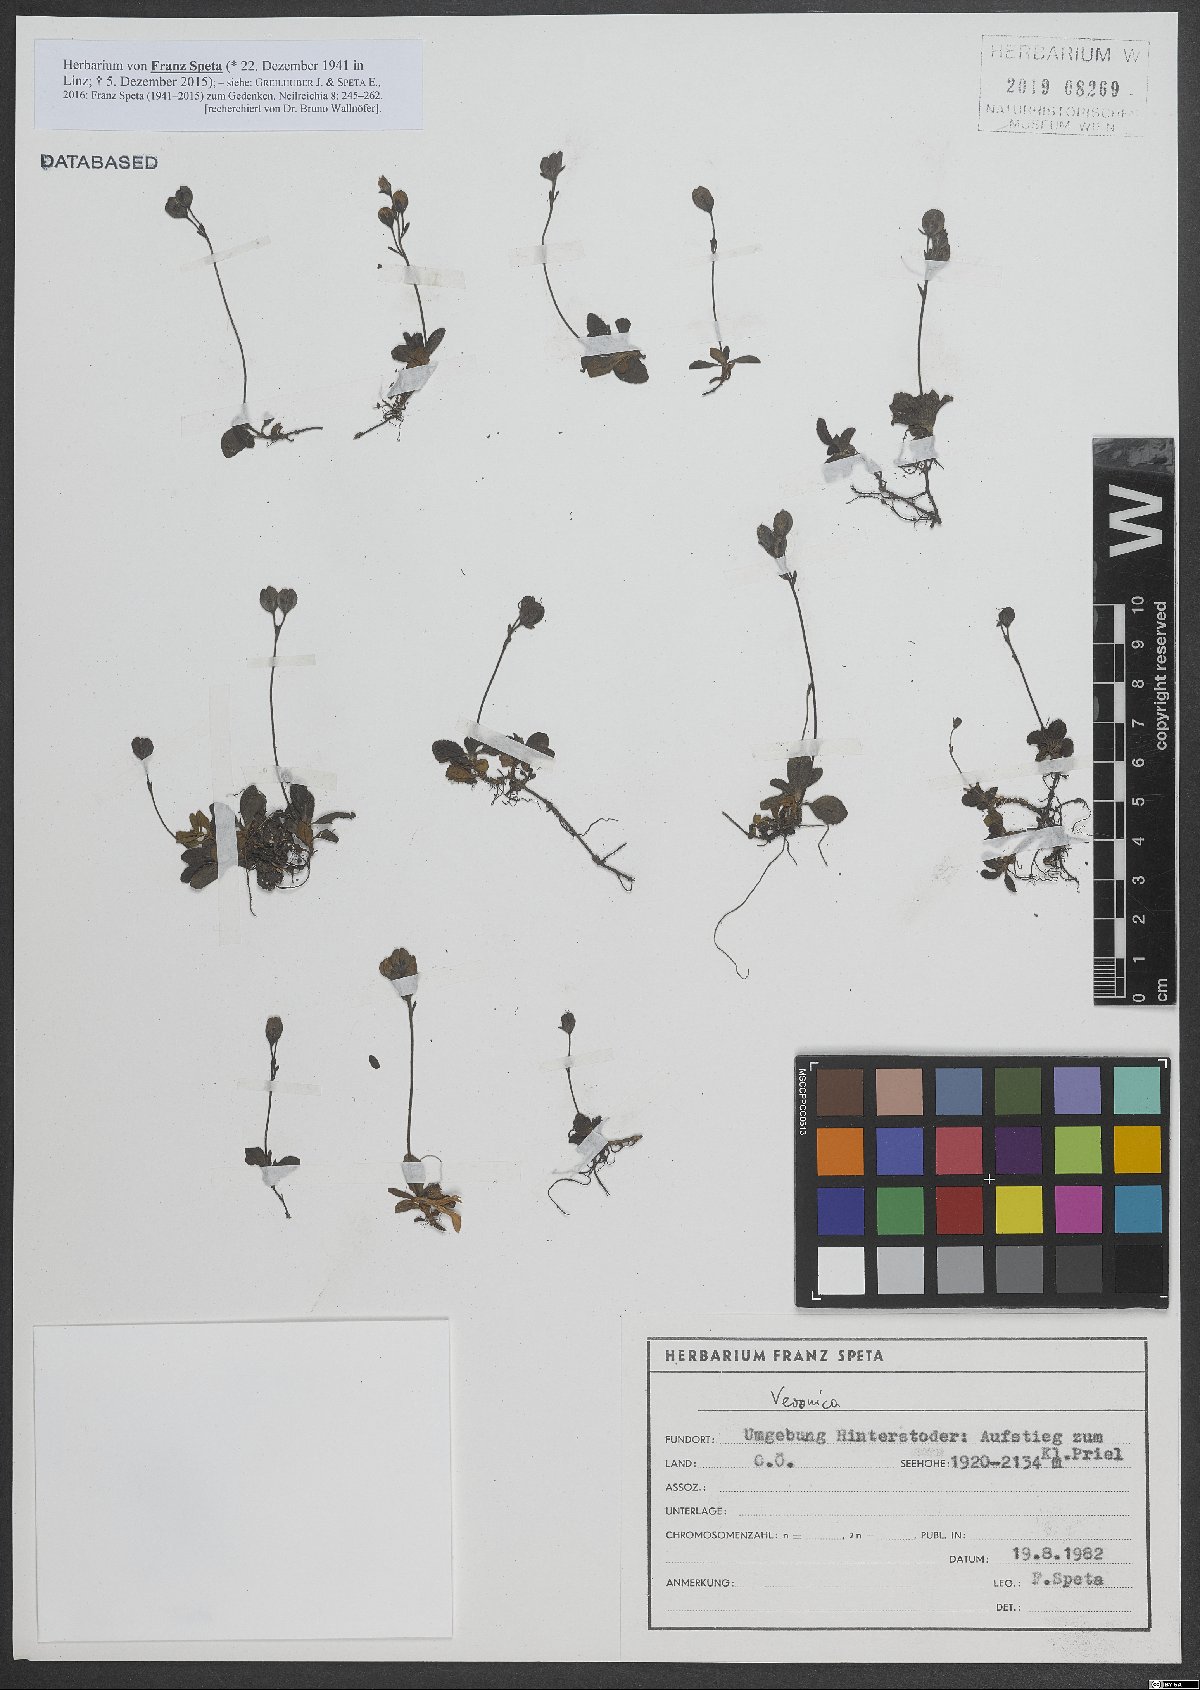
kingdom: Plantae
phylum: Tracheophyta
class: Magnoliopsida
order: Lamiales
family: Plantaginaceae
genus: Veronica
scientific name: Veronica
